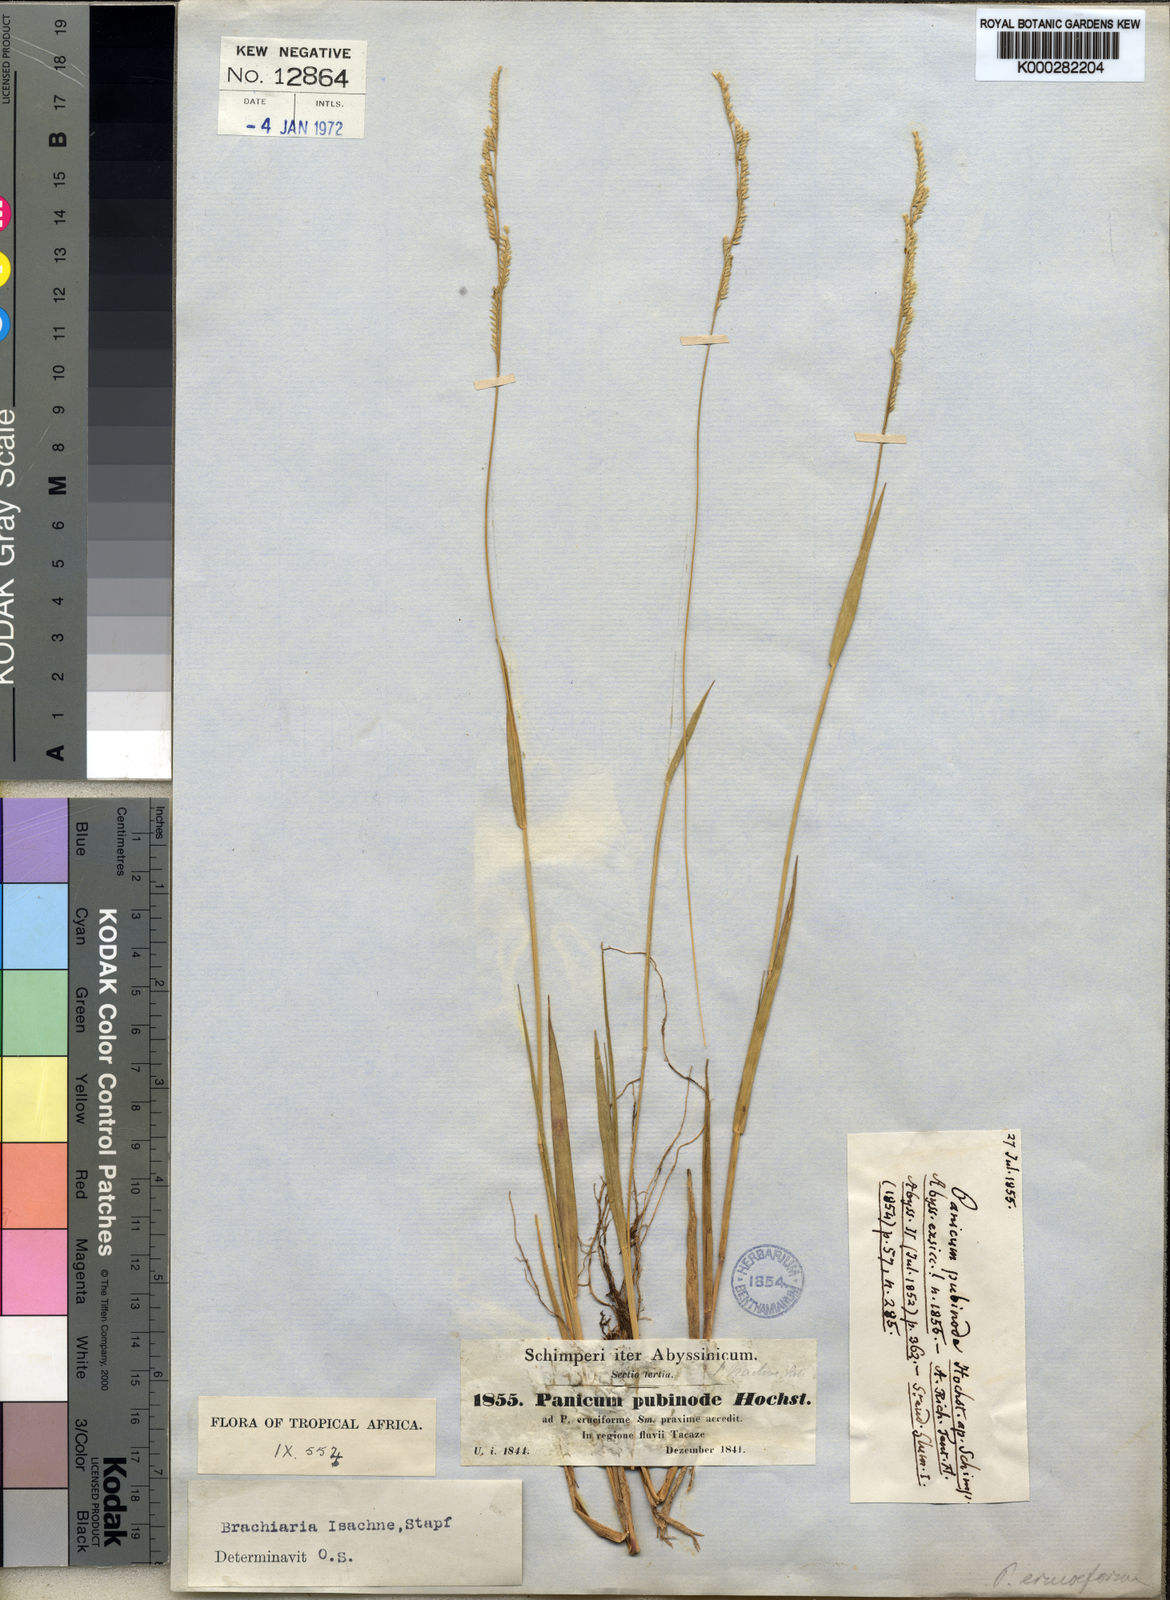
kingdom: Plantae
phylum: Tracheophyta
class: Liliopsida
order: Poales
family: Poaceae
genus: Moorochloa
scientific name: Moorochloa eruciformis
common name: Sweet signalgrass
